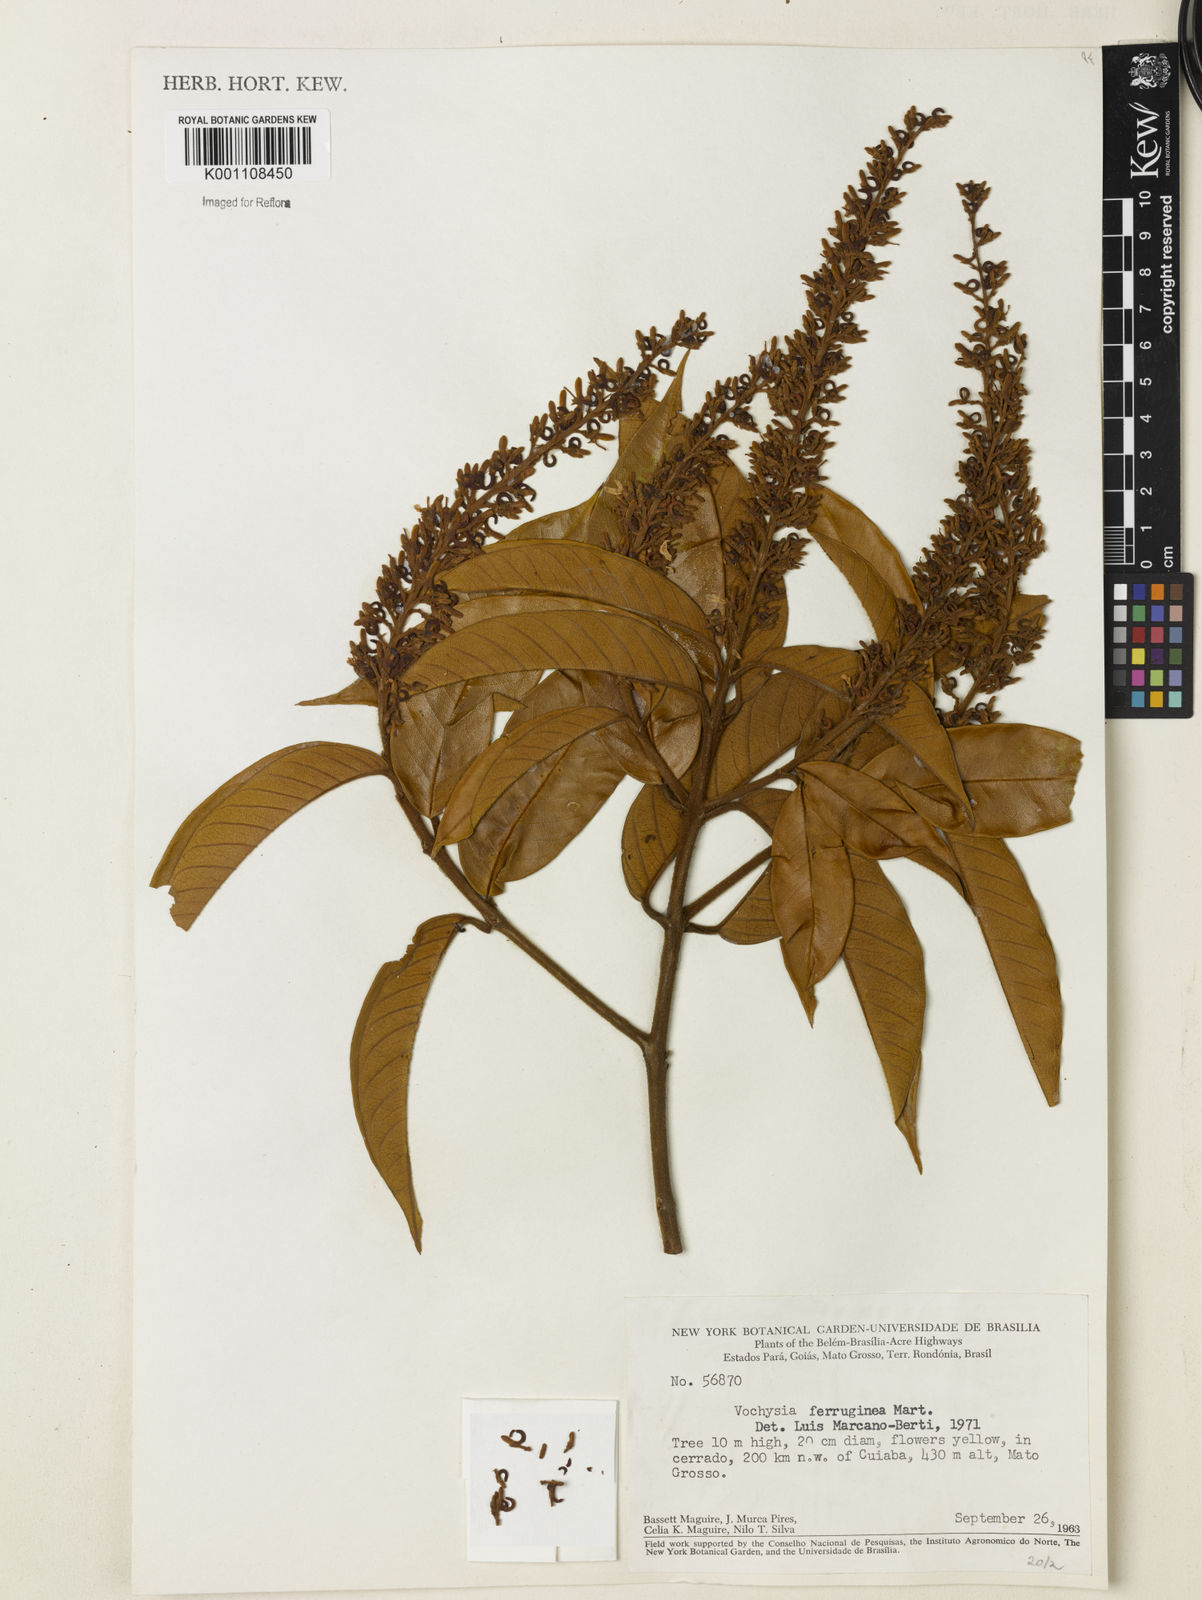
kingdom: Plantae
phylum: Tracheophyta
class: Magnoliopsida
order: Myrtales
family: Vochysiaceae
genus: Vochysia
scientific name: Vochysia ferruginea
